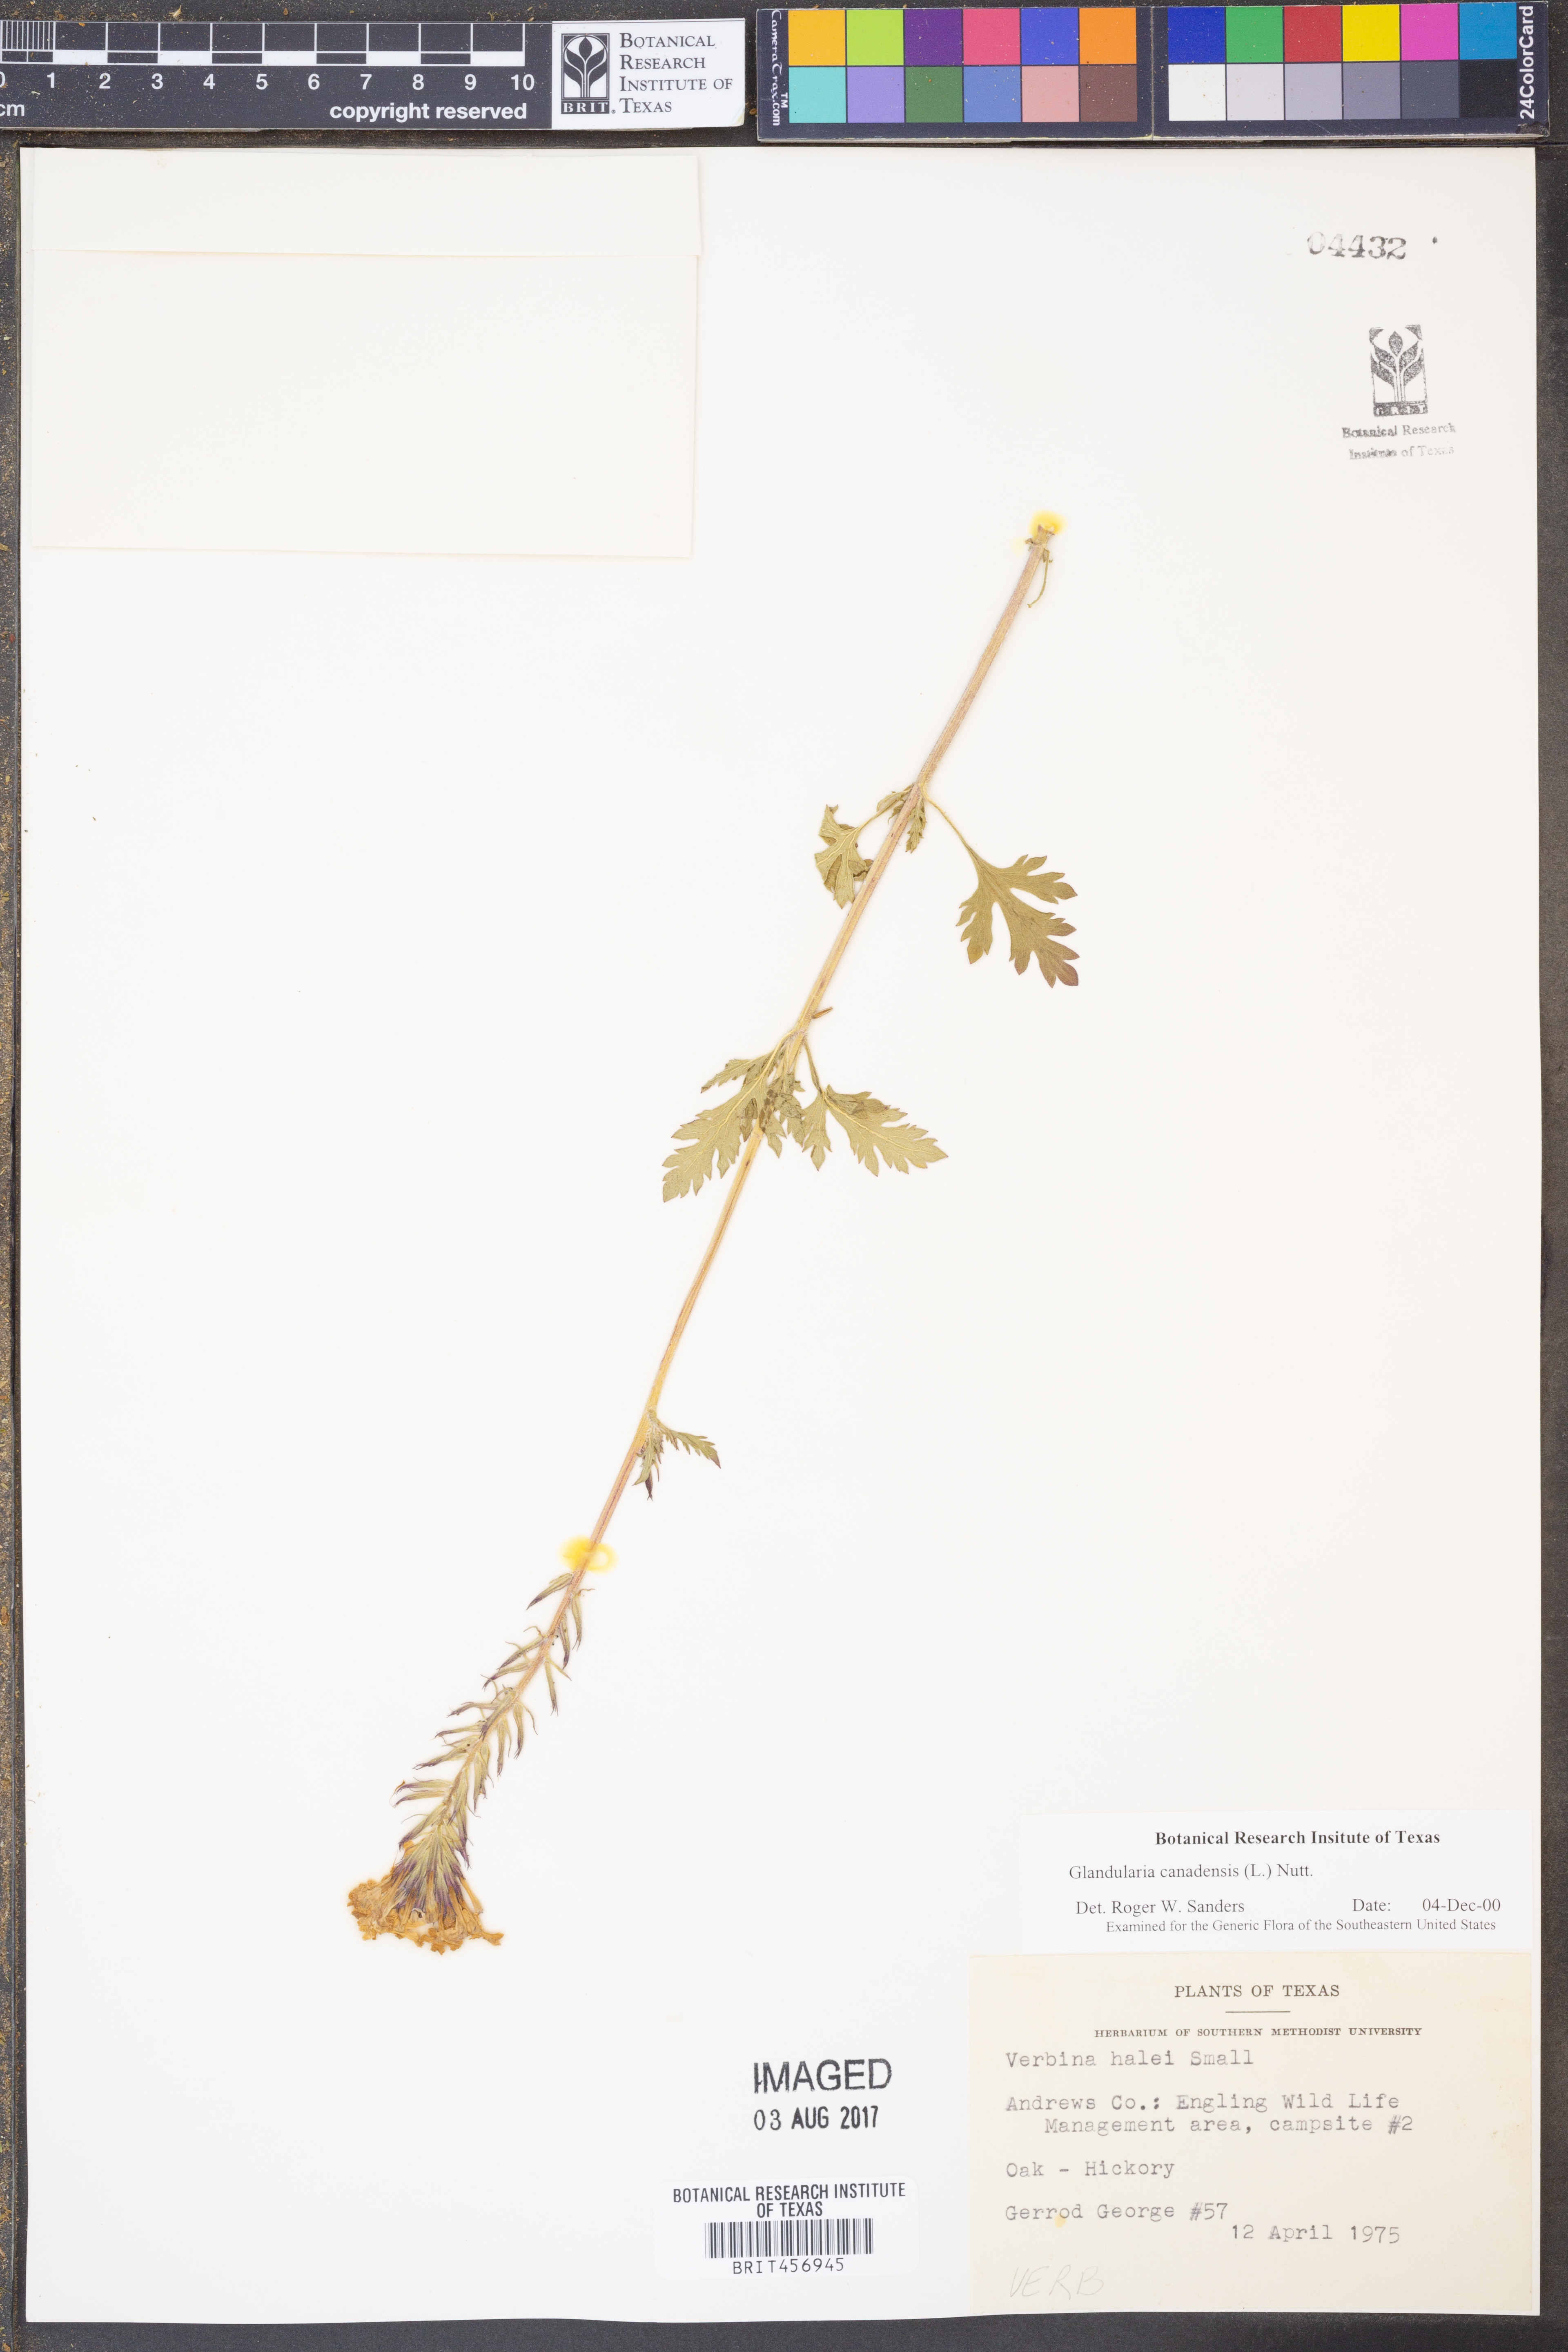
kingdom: Plantae
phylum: Tracheophyta
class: Magnoliopsida
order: Lamiales
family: Verbenaceae
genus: Verbena
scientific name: Verbena canadensis
